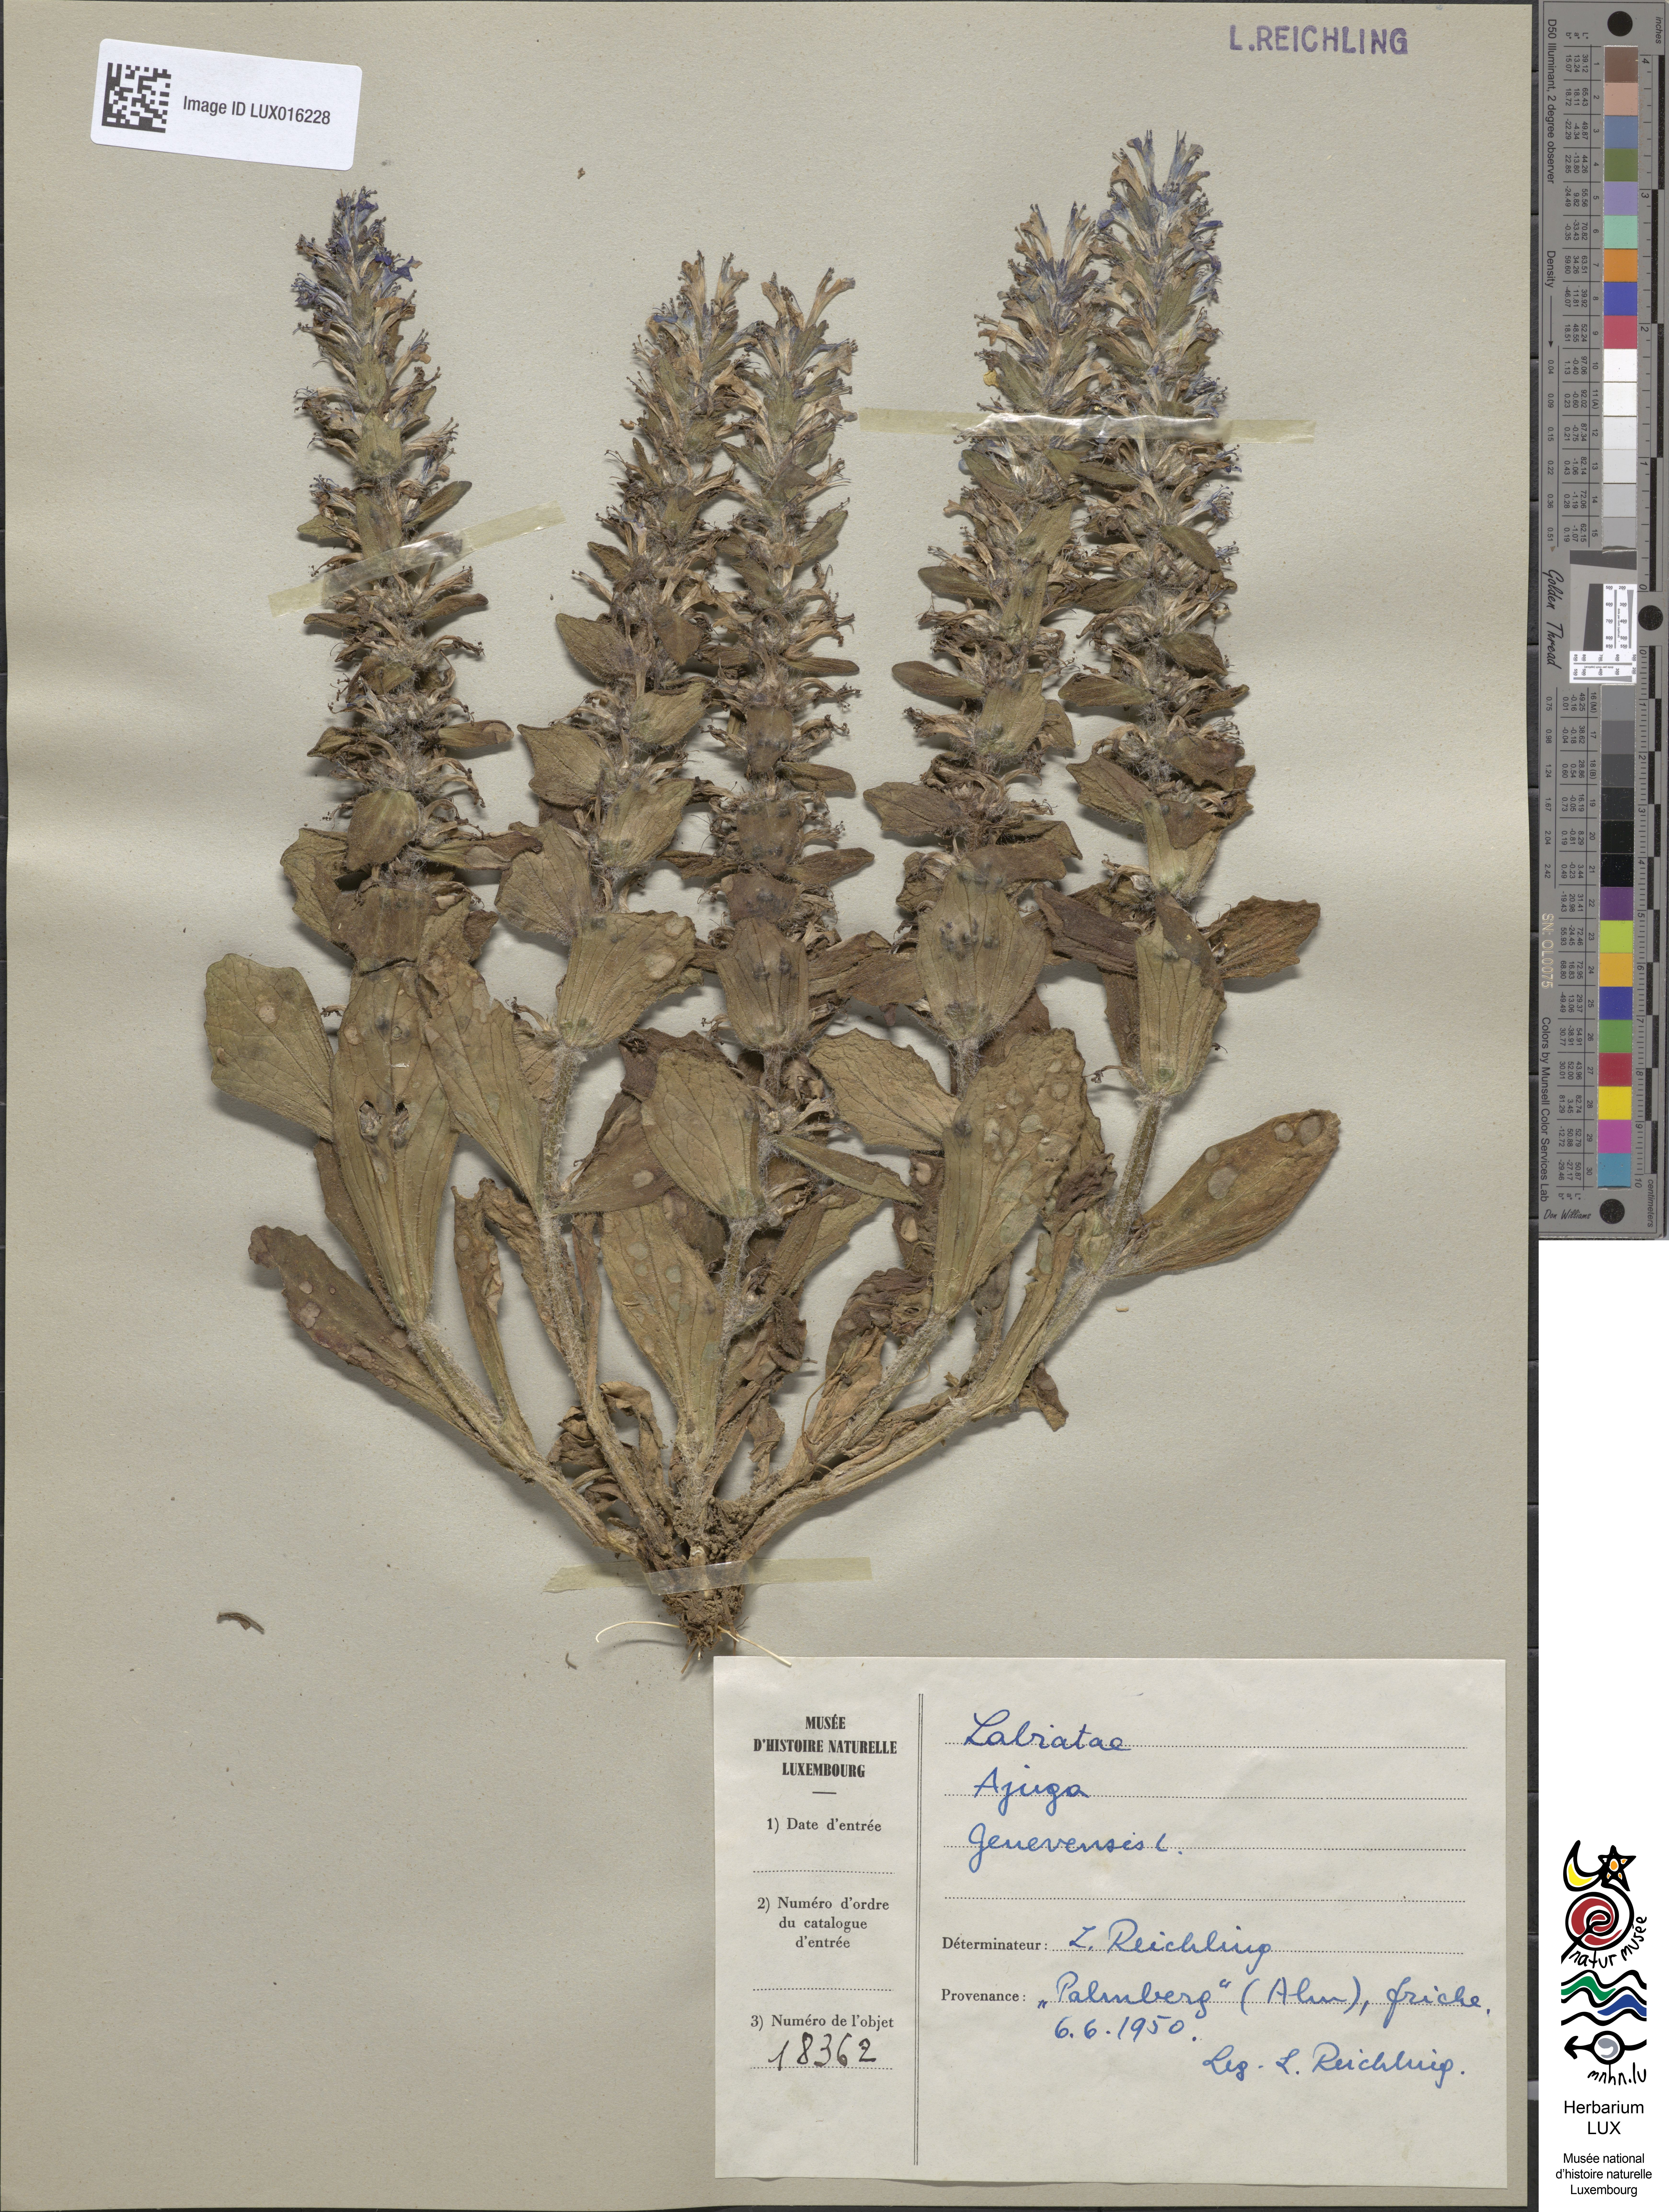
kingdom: Plantae
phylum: Tracheophyta
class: Magnoliopsida
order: Lamiales
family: Lamiaceae
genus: Ajuga
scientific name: Ajuga genevensis
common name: Blue bugle
